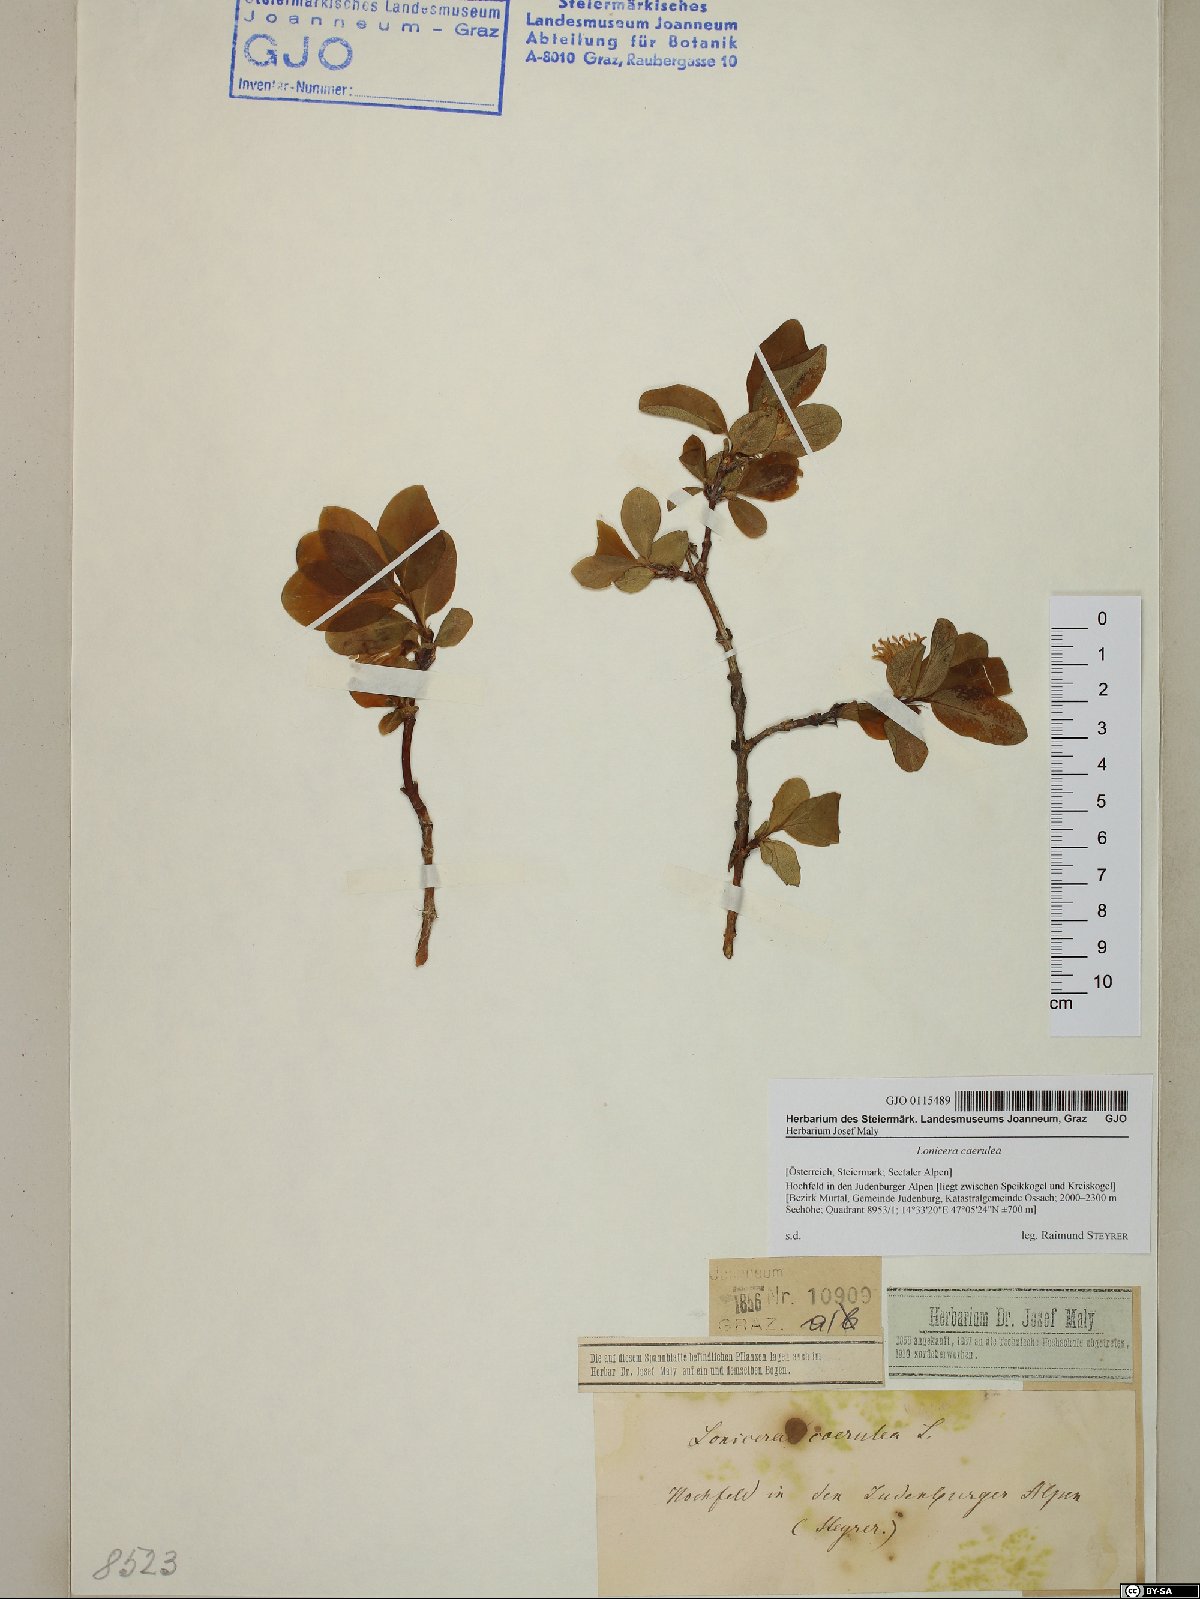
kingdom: Plantae
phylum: Tracheophyta
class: Magnoliopsida
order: Dipsacales
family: Caprifoliaceae
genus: Lonicera
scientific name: Lonicera caerulea
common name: Blue honeysuckle
